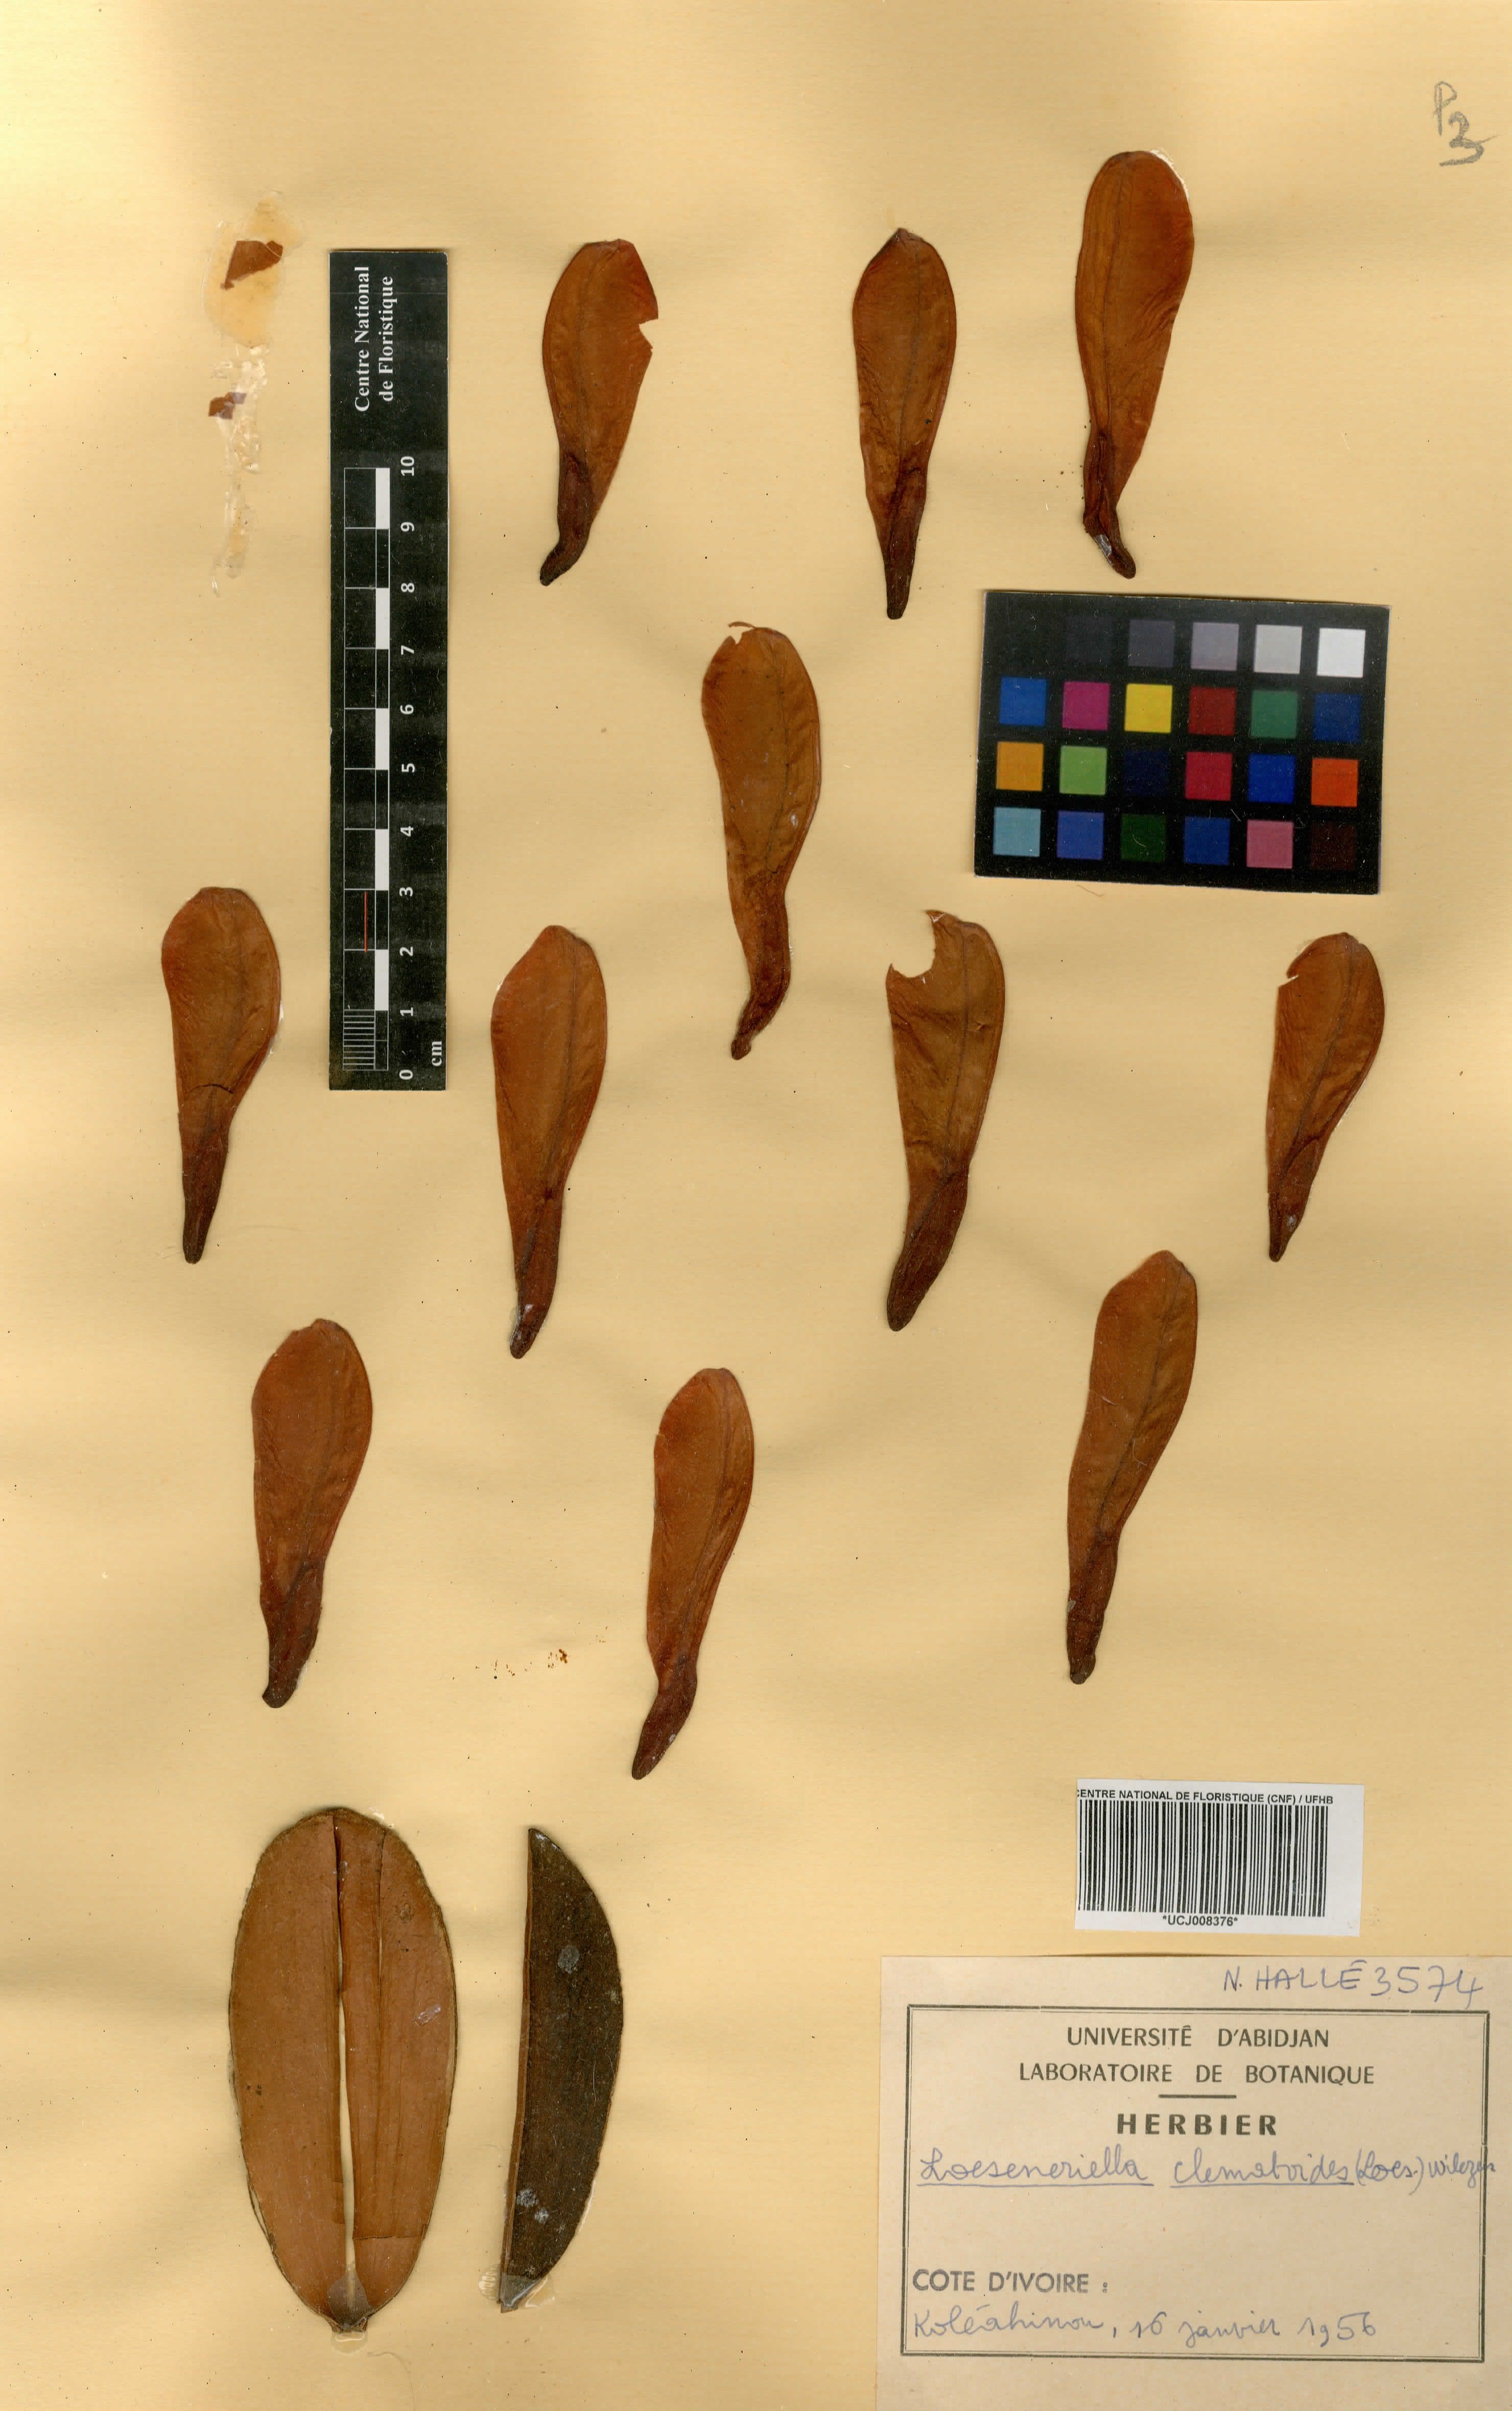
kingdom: Plantae
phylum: Tracheophyta
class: Magnoliopsida
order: Celastrales
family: Celastraceae
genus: Loeseneriella
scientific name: Loeseneriella clematoides
